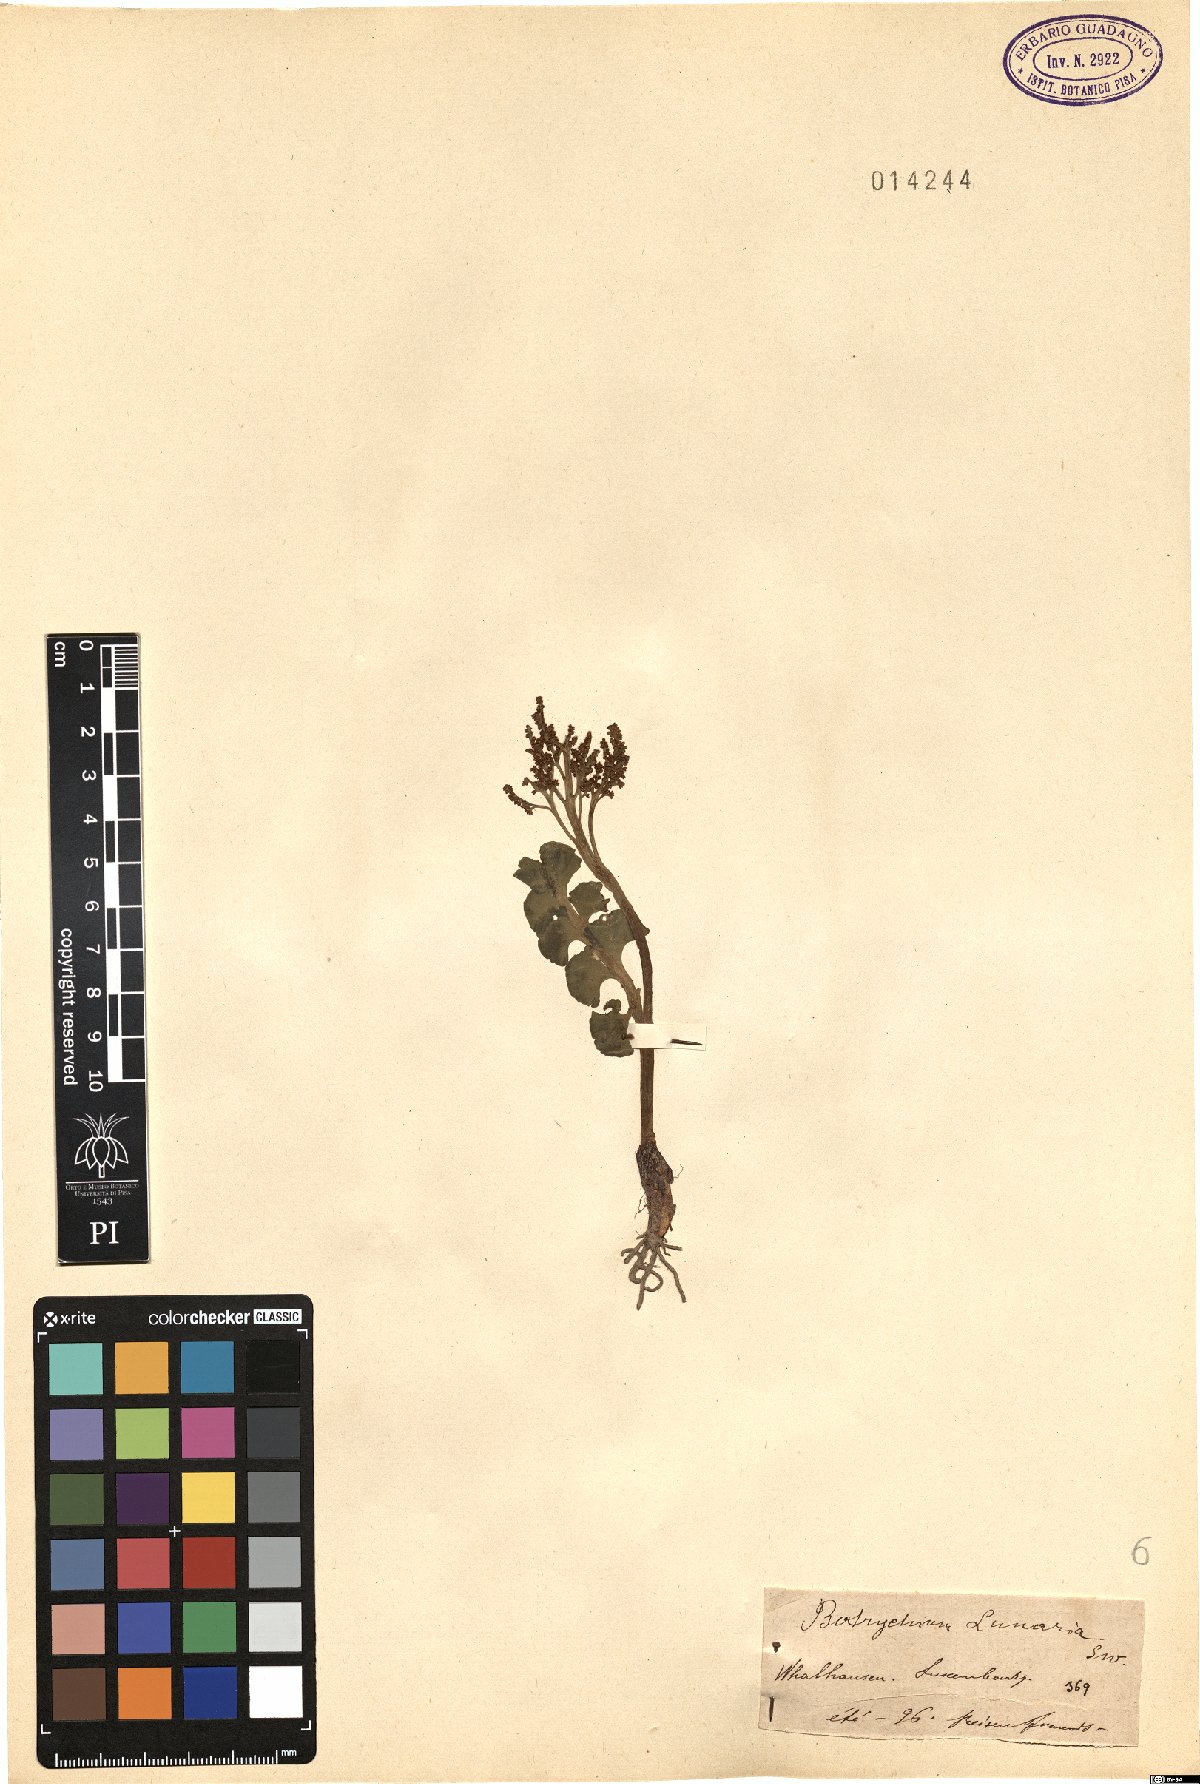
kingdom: Plantae
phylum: Tracheophyta
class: Polypodiopsida
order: Ophioglossales
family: Ophioglossaceae
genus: Botrychium
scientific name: Botrychium lunaria
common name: Moonwort
